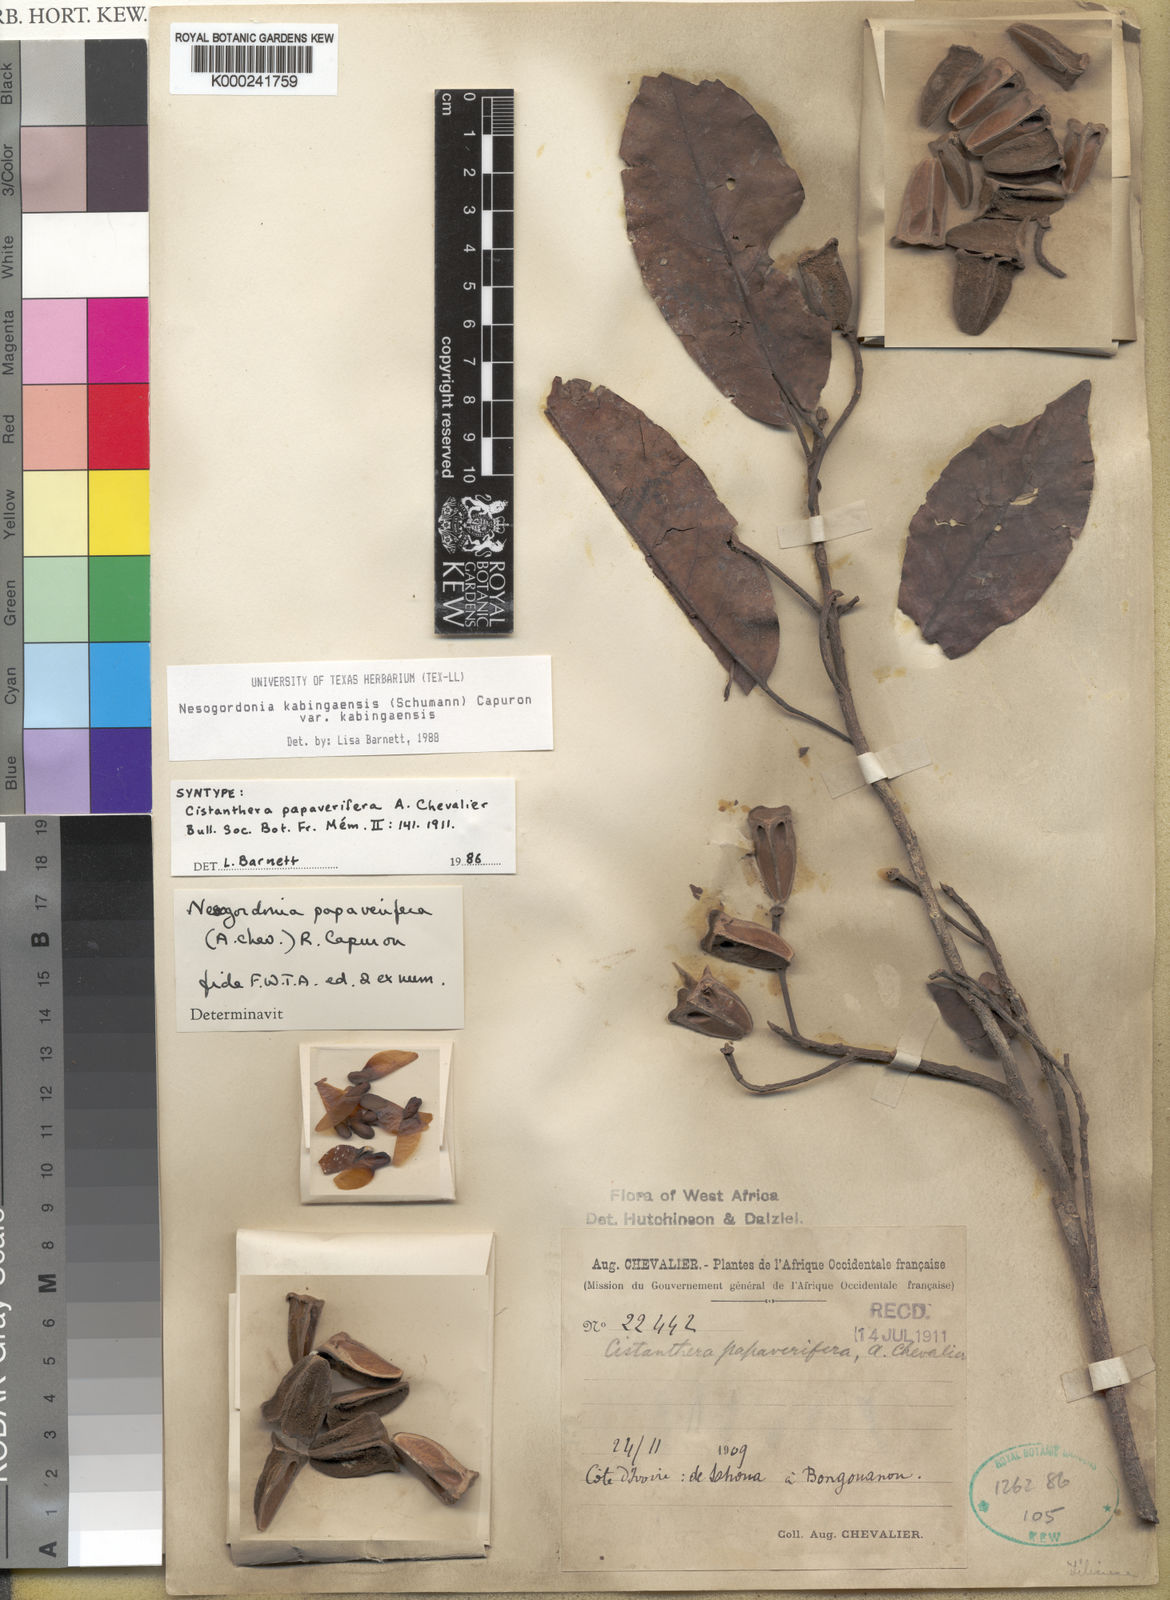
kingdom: Plantae
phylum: Tracheophyta
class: Magnoliopsida
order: Malvales
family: Malvaceae
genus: Nesogordonia
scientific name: Nesogordonia
